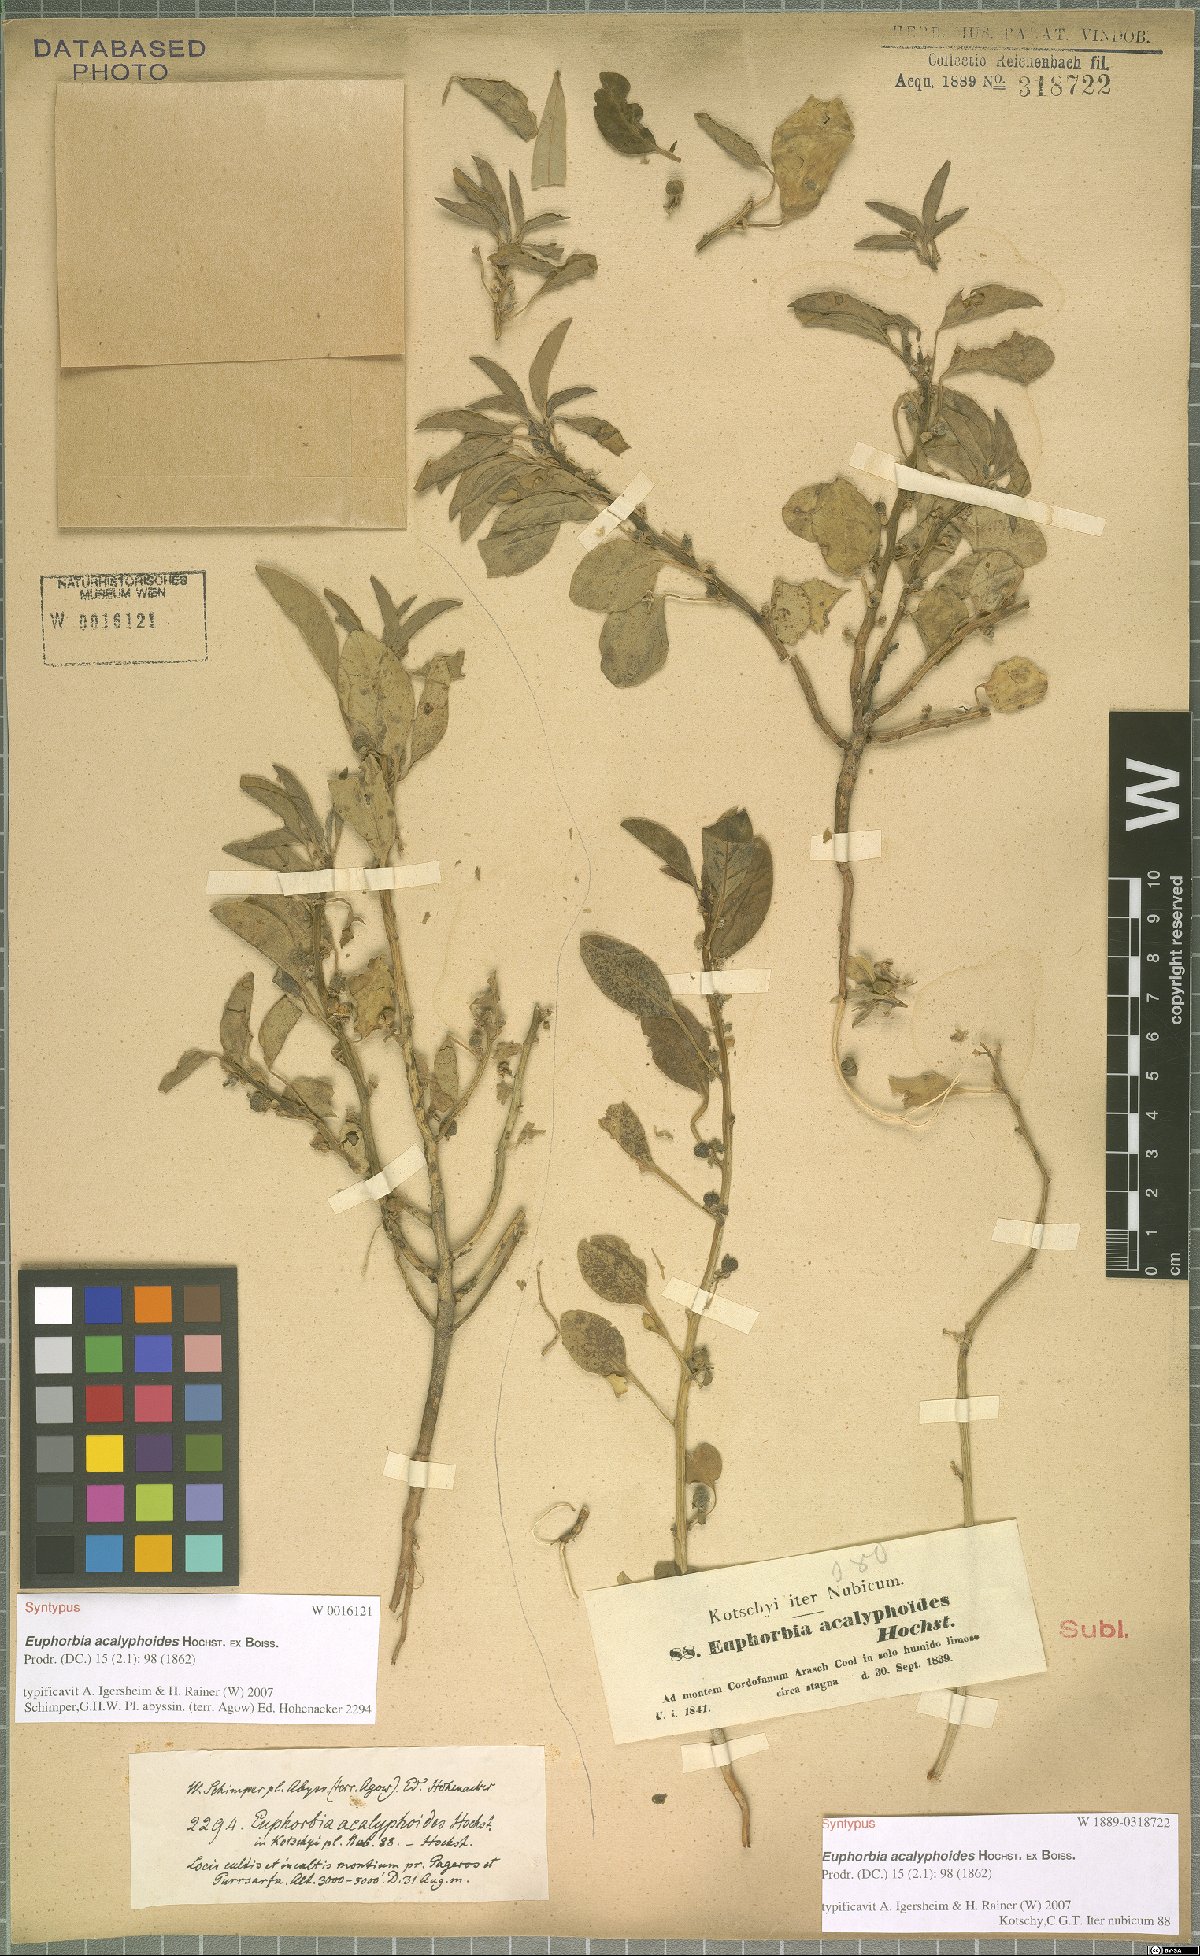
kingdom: Plantae
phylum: Tracheophyta
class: Magnoliopsida
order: Malpighiales
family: Euphorbiaceae
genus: Euphorbia
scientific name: Euphorbia acalyphoides
